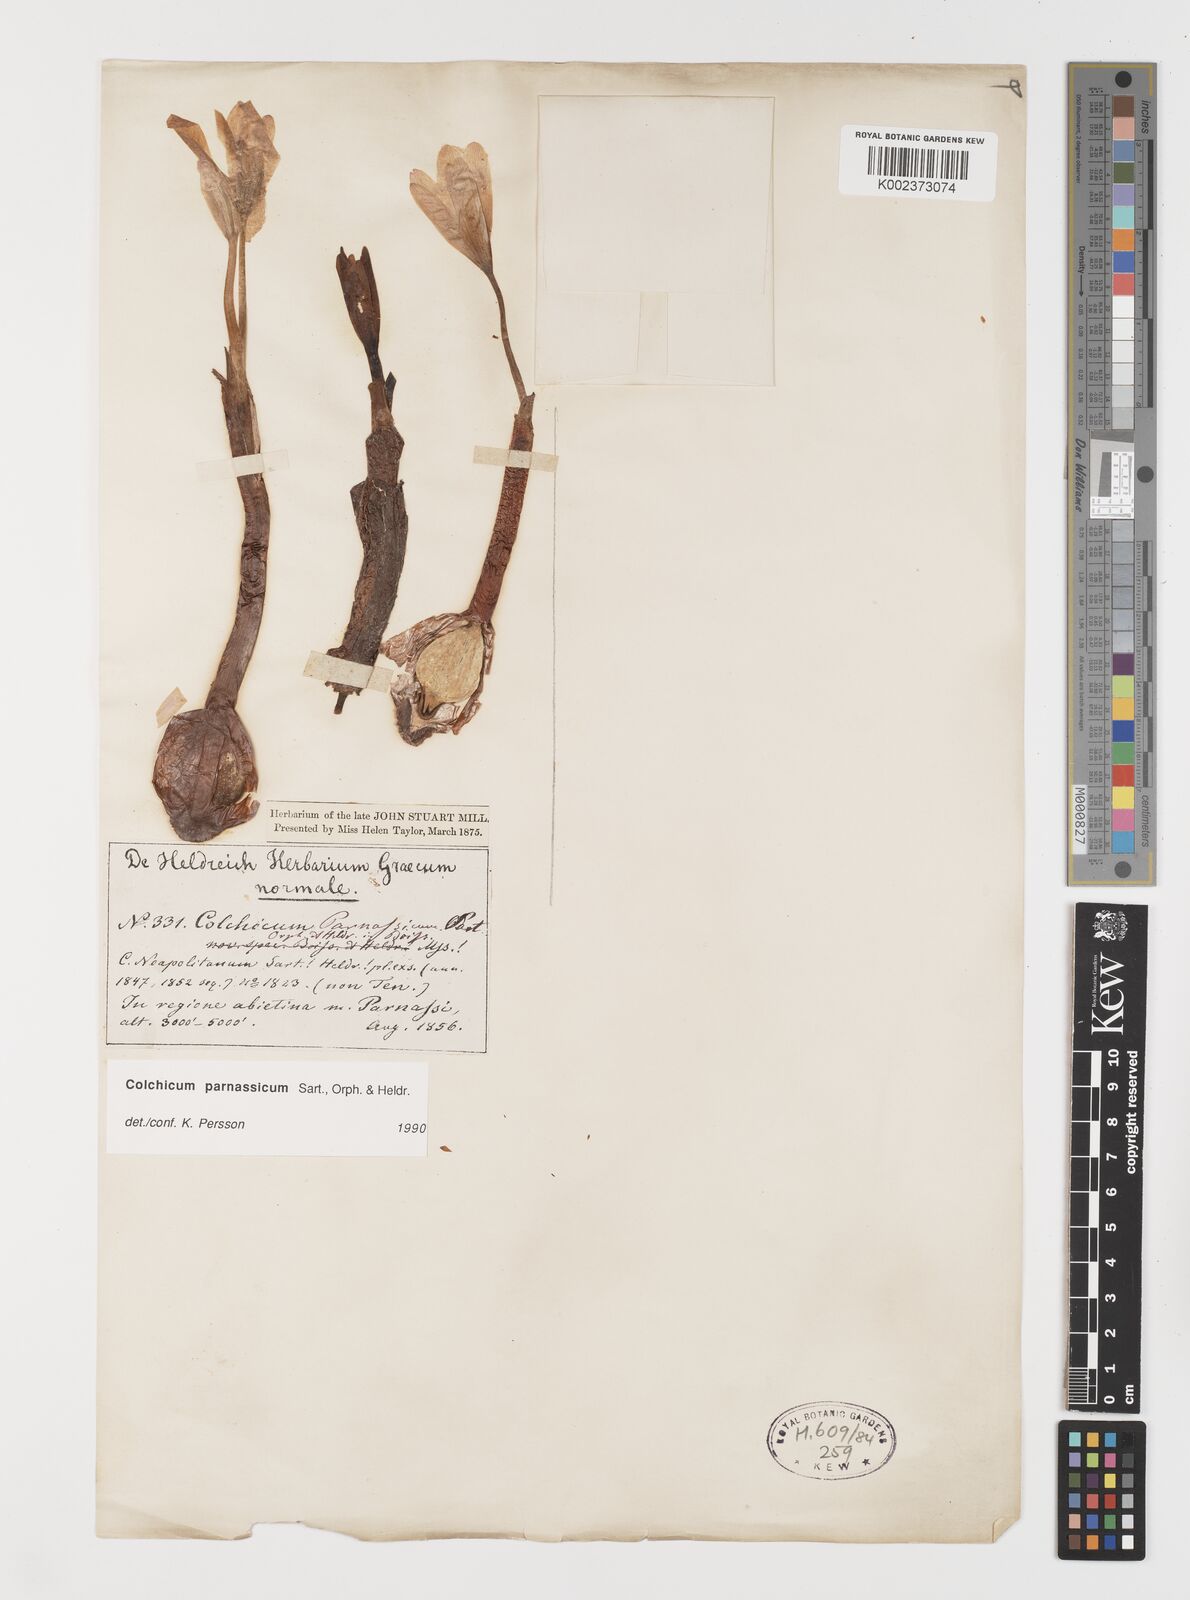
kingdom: Plantae
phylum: Tracheophyta
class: Liliopsida
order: Liliales
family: Colchicaceae
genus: Colchicum
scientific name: Colchicum parnassicum
